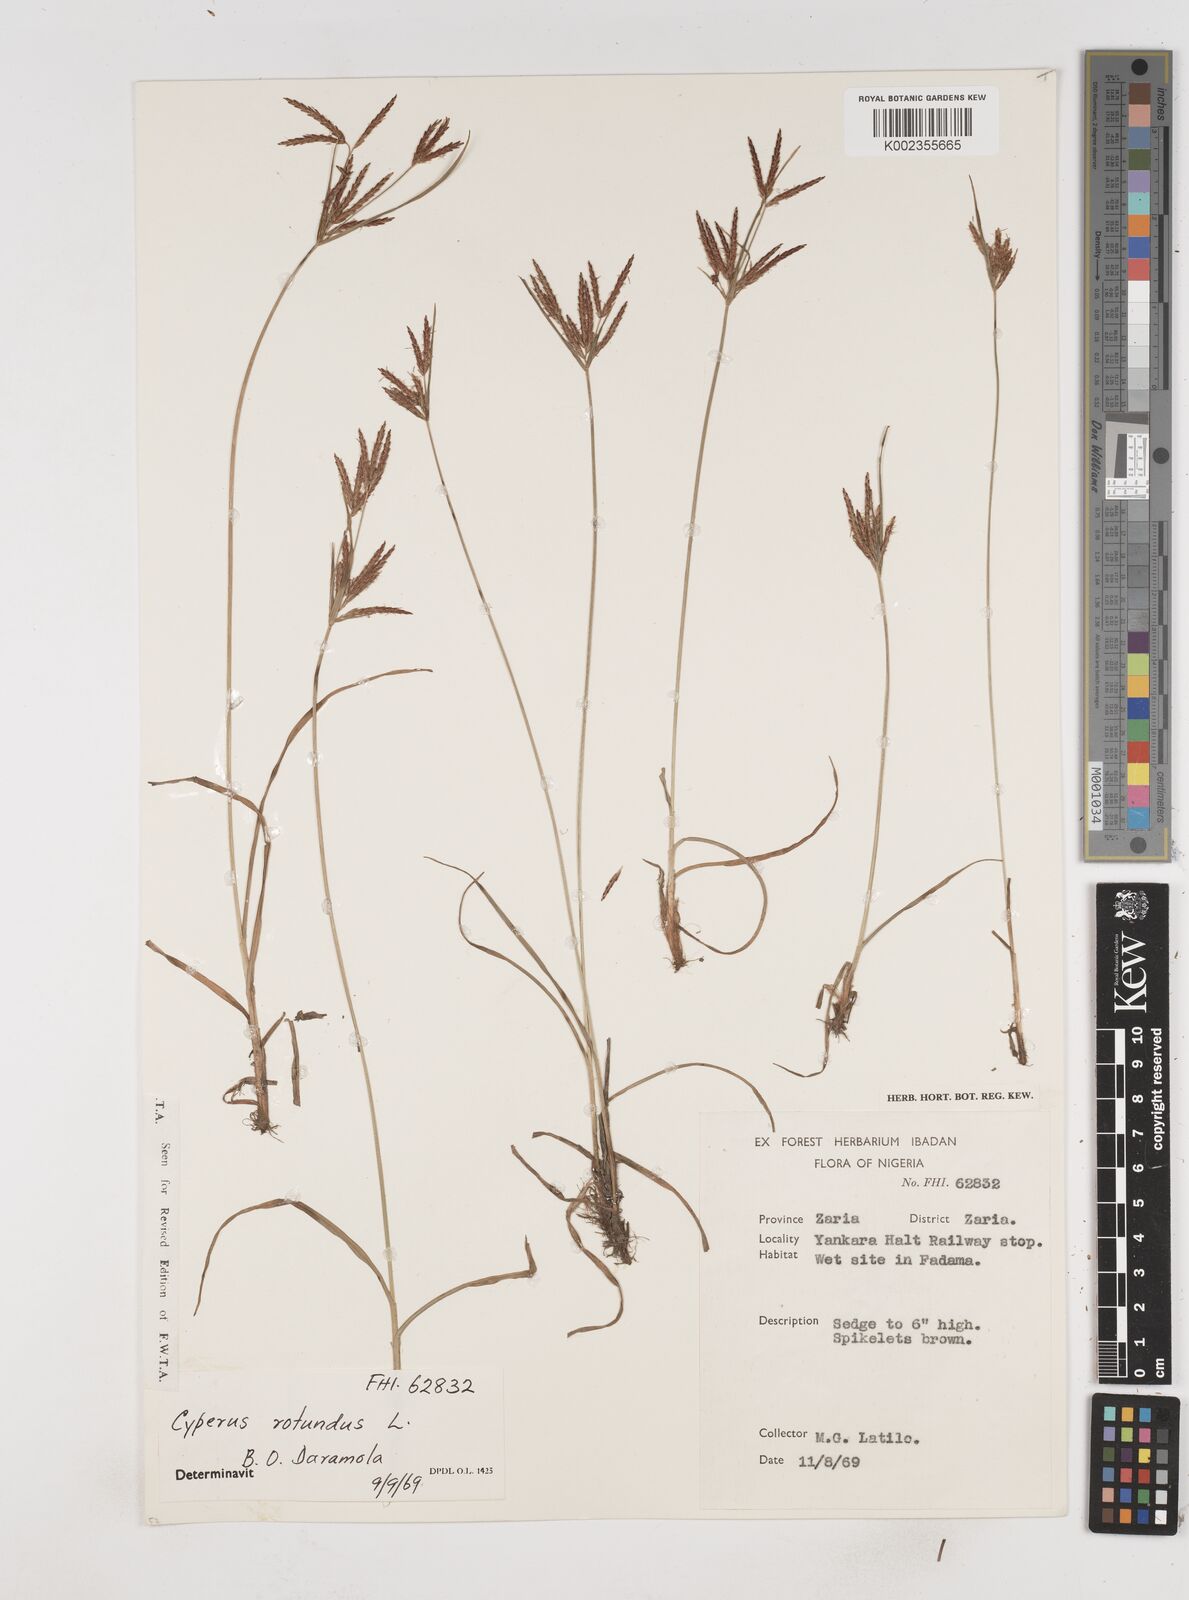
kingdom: Plantae
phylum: Tracheophyta
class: Liliopsida
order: Poales
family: Cyperaceae
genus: Cyperus
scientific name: Cyperus rotundus
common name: Nutgrass
